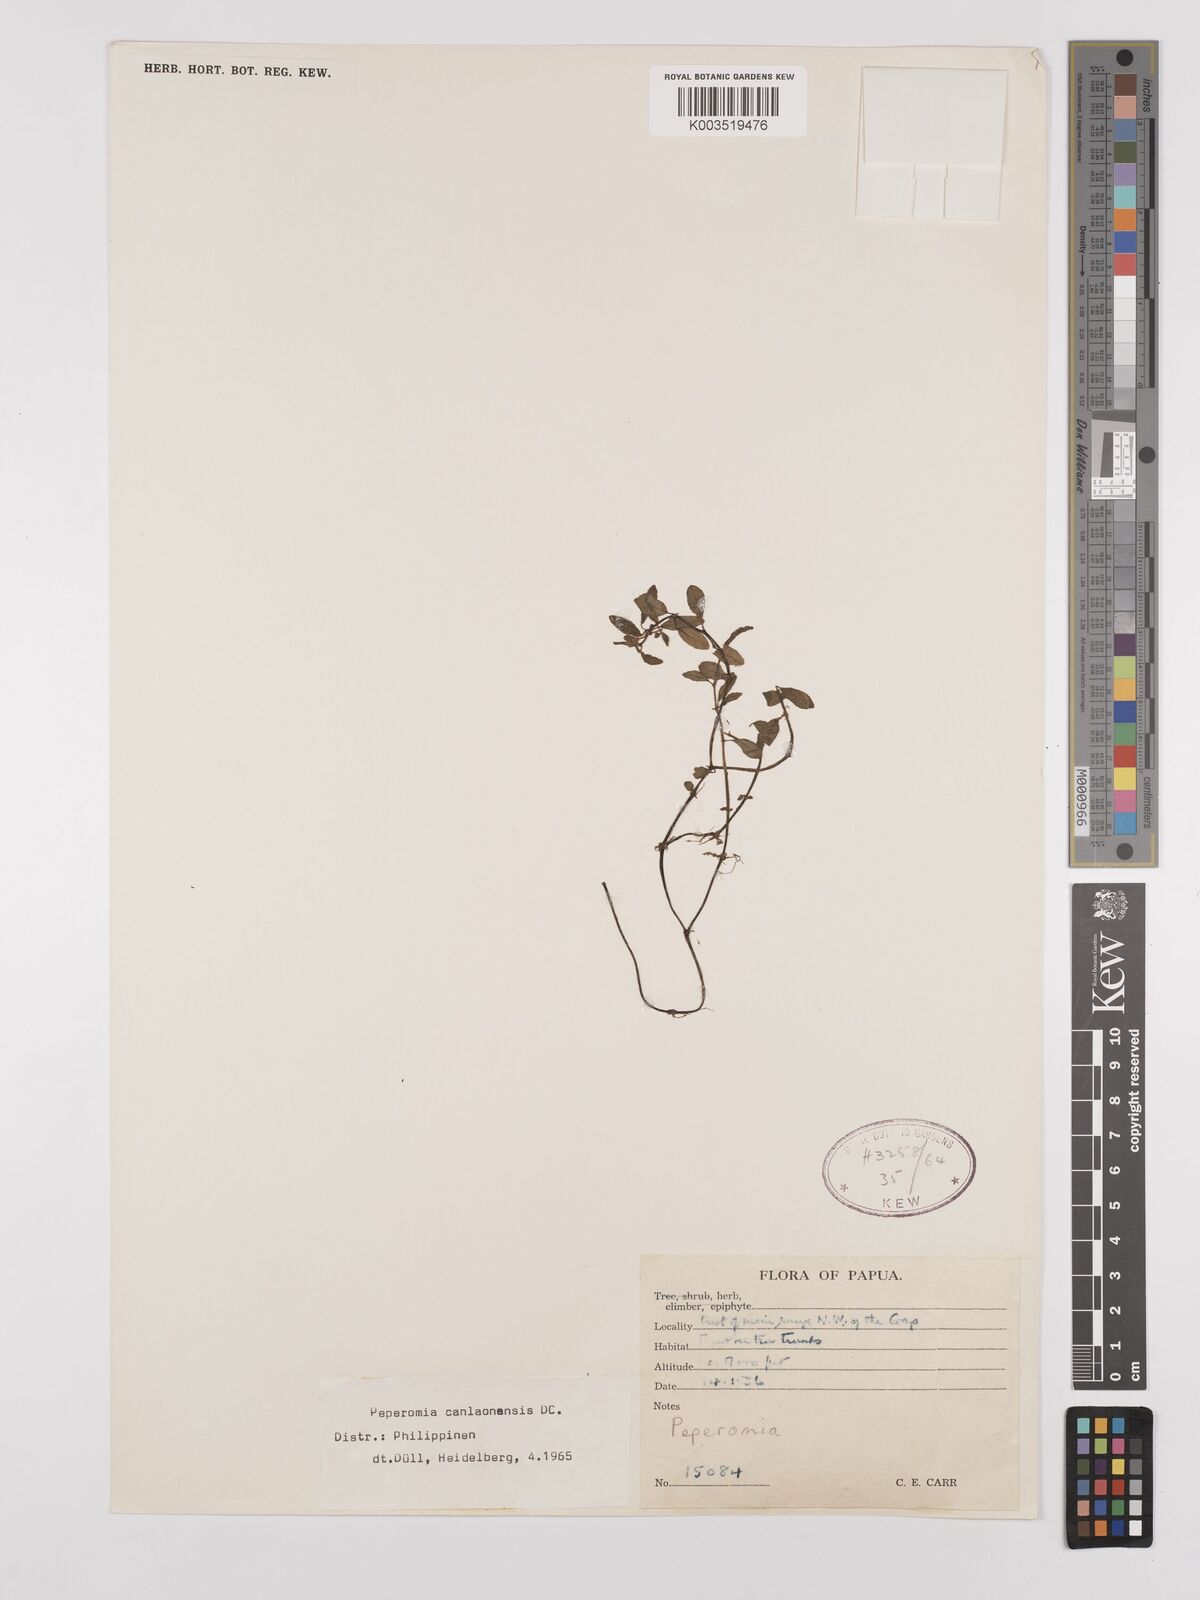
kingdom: Plantae
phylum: Tracheophyta
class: Magnoliopsida
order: Piperales
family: Piperaceae
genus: Peperomia
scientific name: Peperomia canlaonensis
